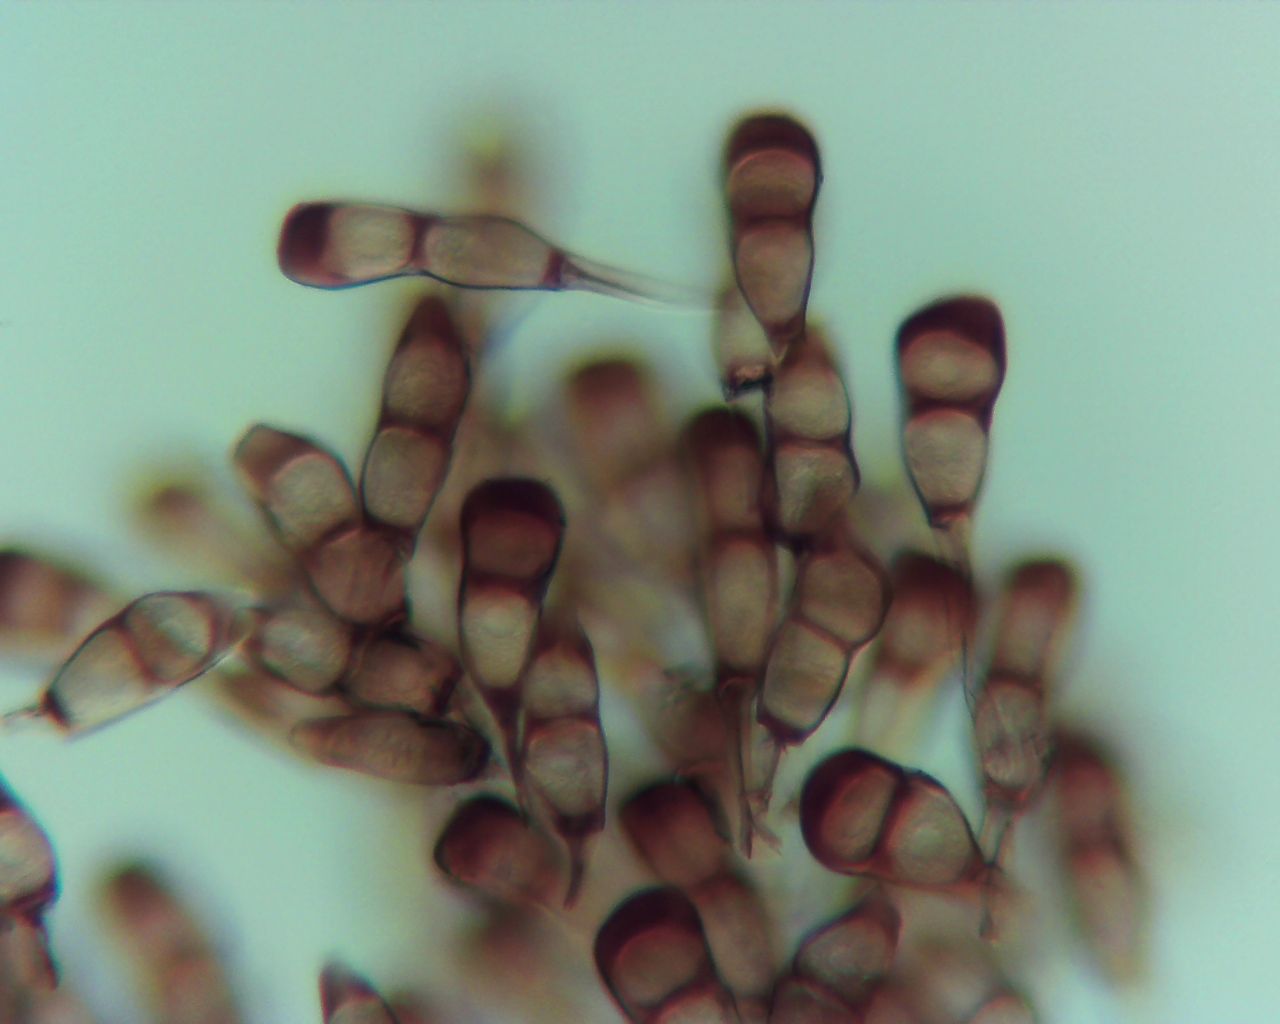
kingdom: Fungi
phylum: Basidiomycota
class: Pucciniomycetes
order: Pucciniales
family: Pucciniaceae
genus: Puccinia
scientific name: Puccinia difformis
